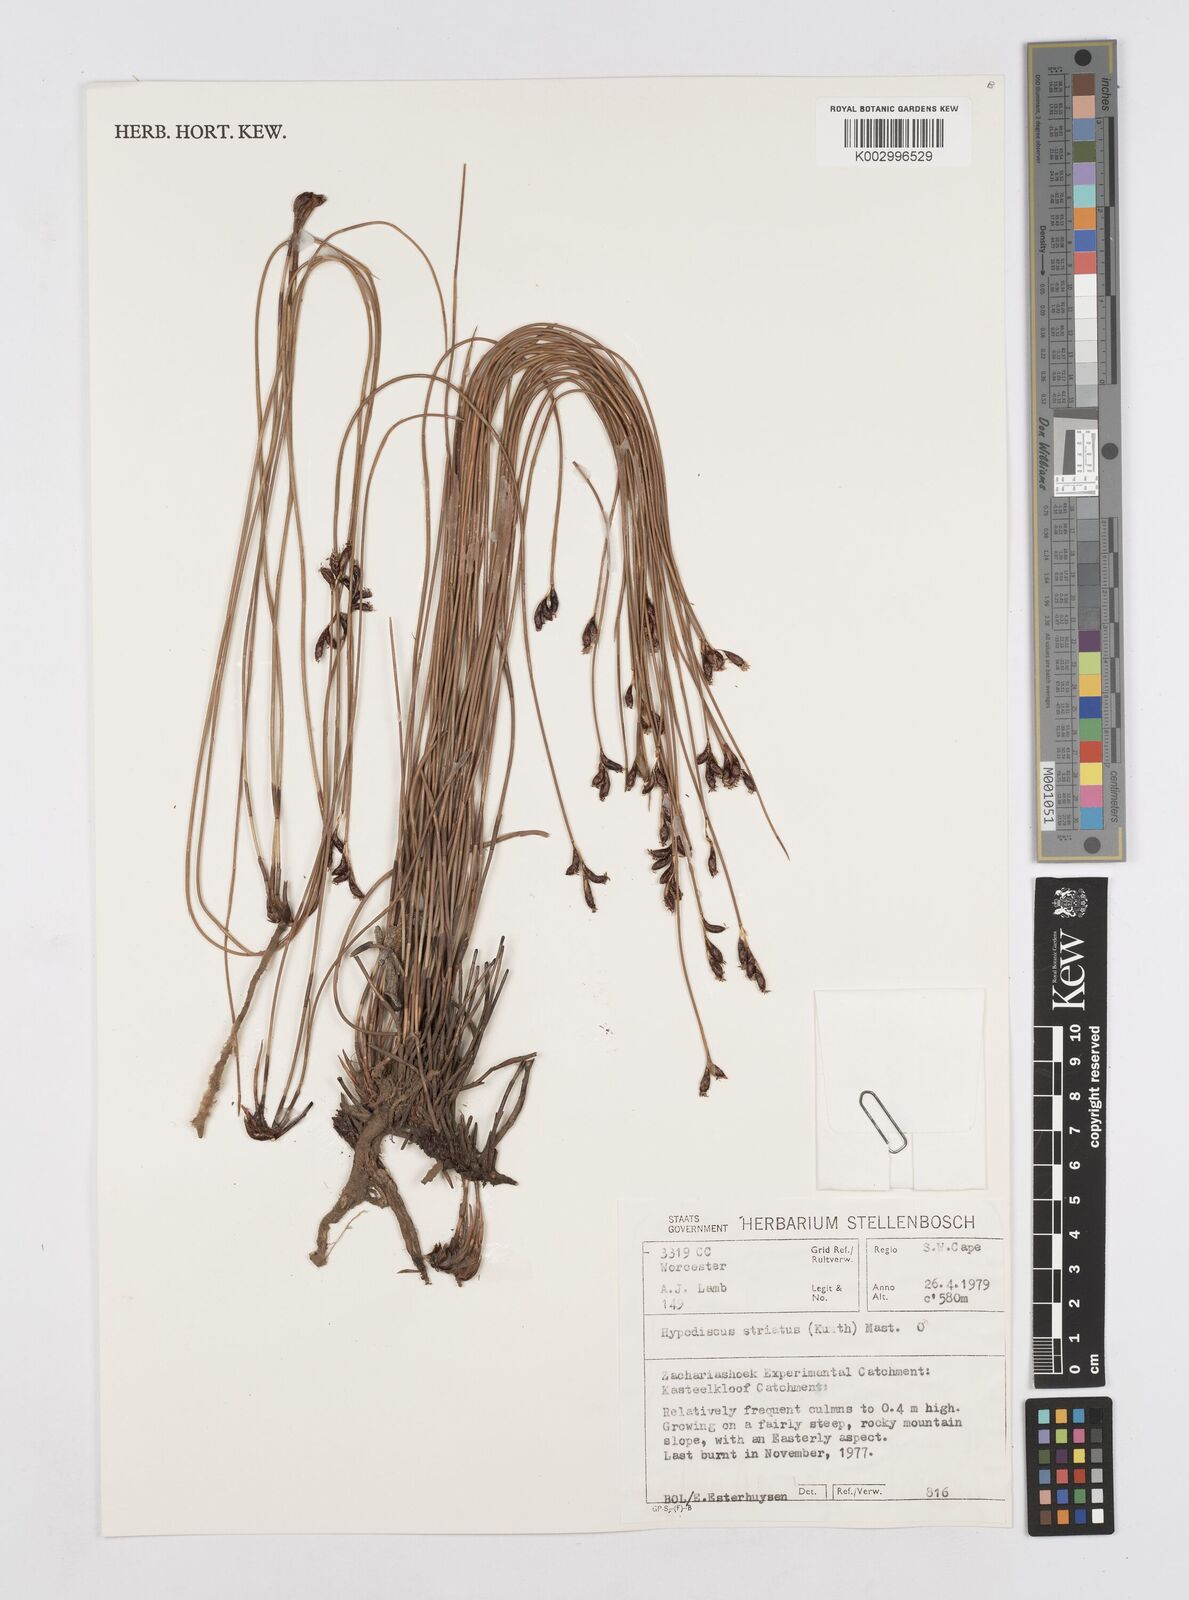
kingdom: Plantae
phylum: Tracheophyta
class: Liliopsida
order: Poales
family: Restionaceae
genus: Hypodiscus
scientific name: Hypodiscus striatus
